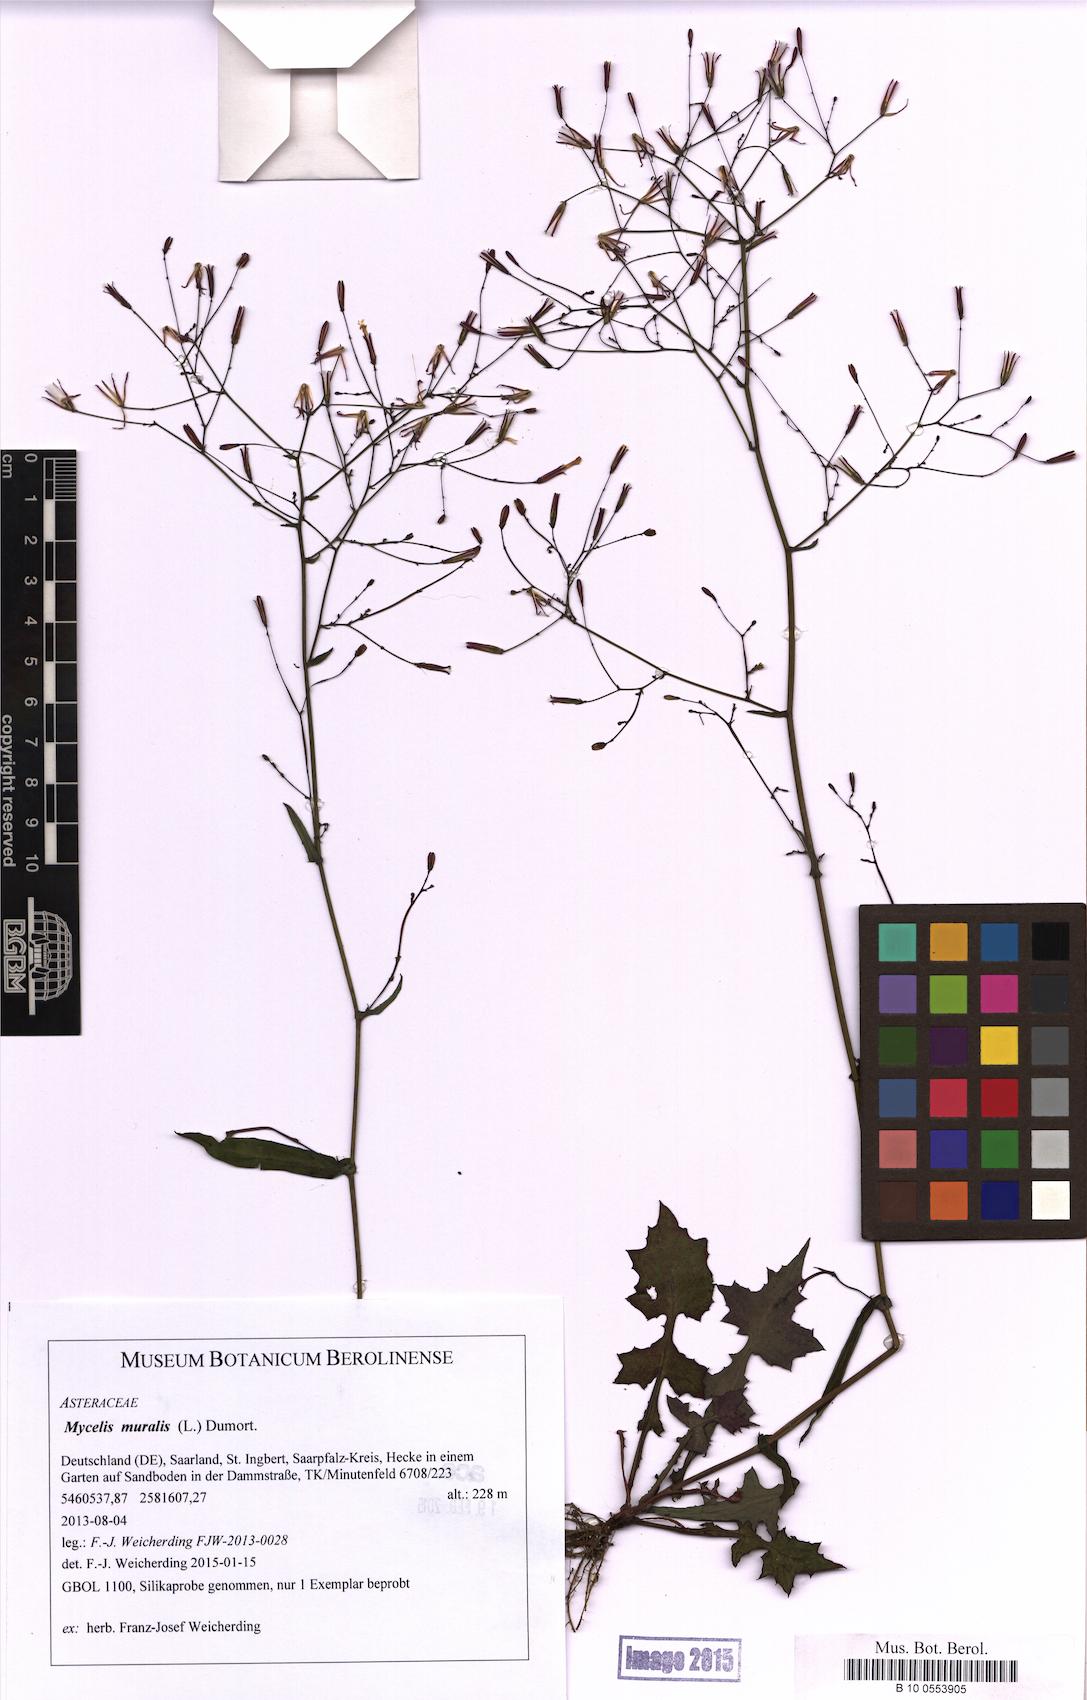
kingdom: Plantae
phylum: Tracheophyta
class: Magnoliopsida
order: Asterales
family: Asteraceae
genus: Mycelis
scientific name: Mycelis muralis
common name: Wall lettuce
